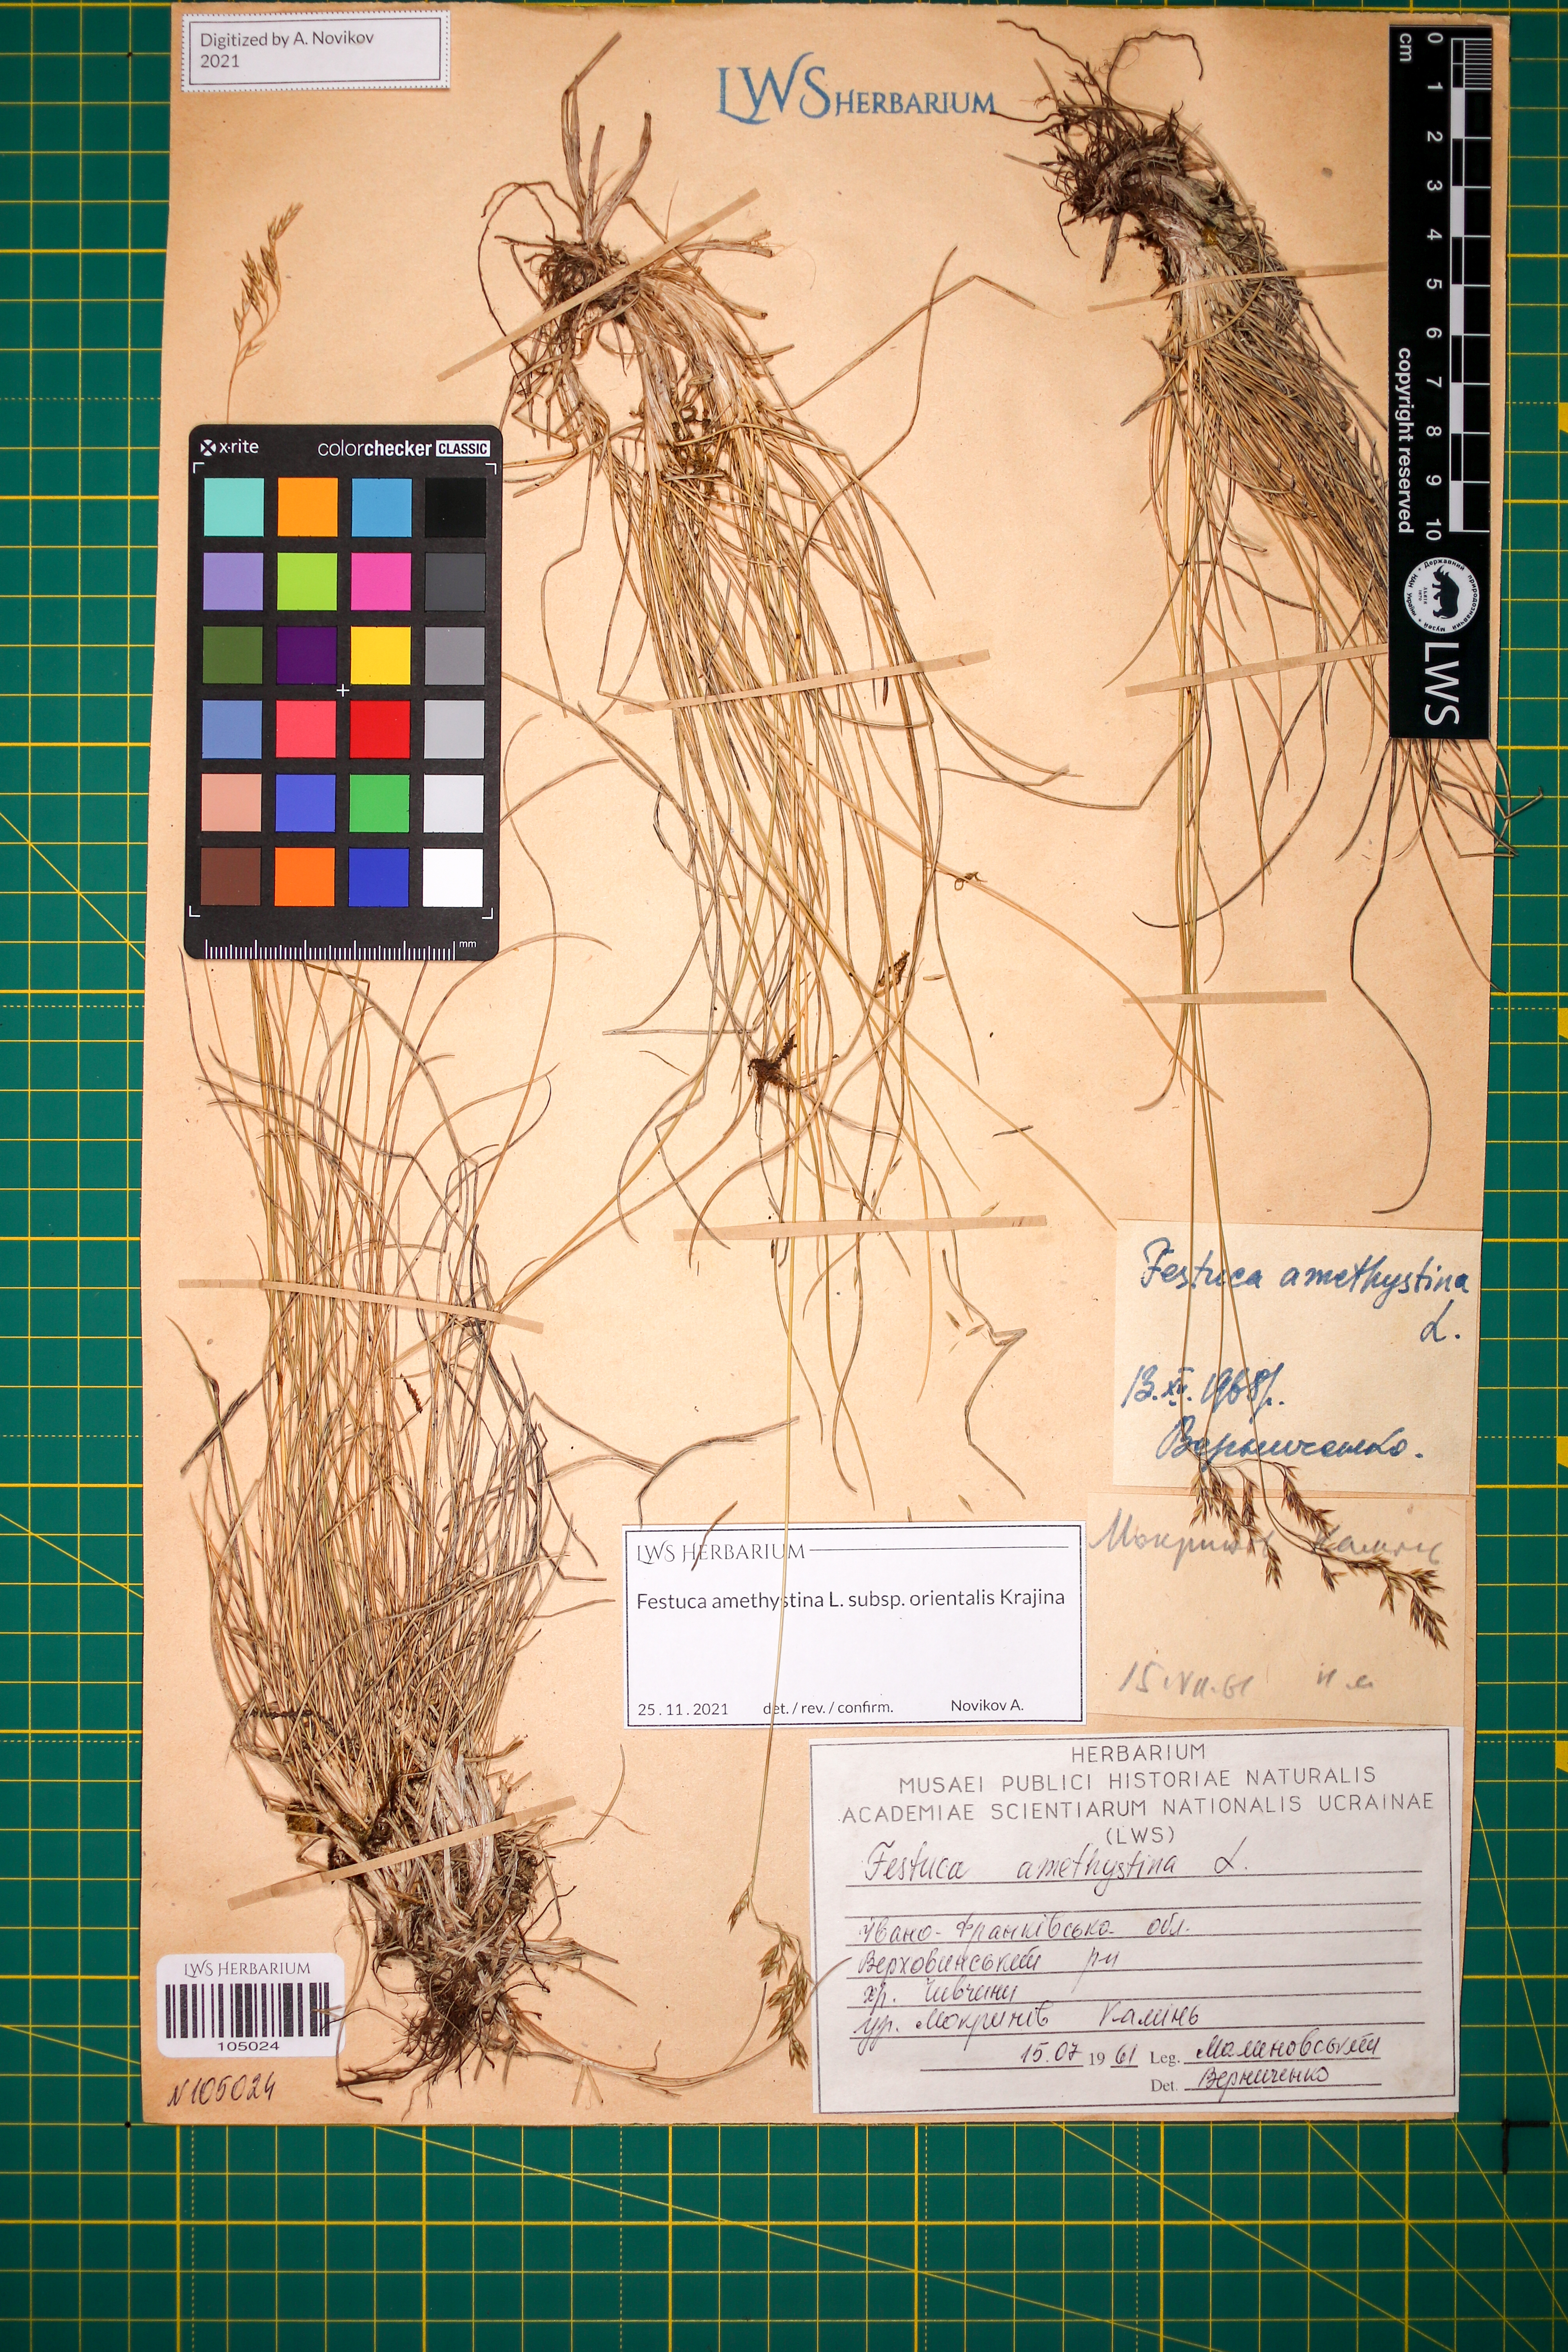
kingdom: Plantae
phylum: Tracheophyta
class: Liliopsida
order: Poales
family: Poaceae
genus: Festuca
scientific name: Festuca amethystina
